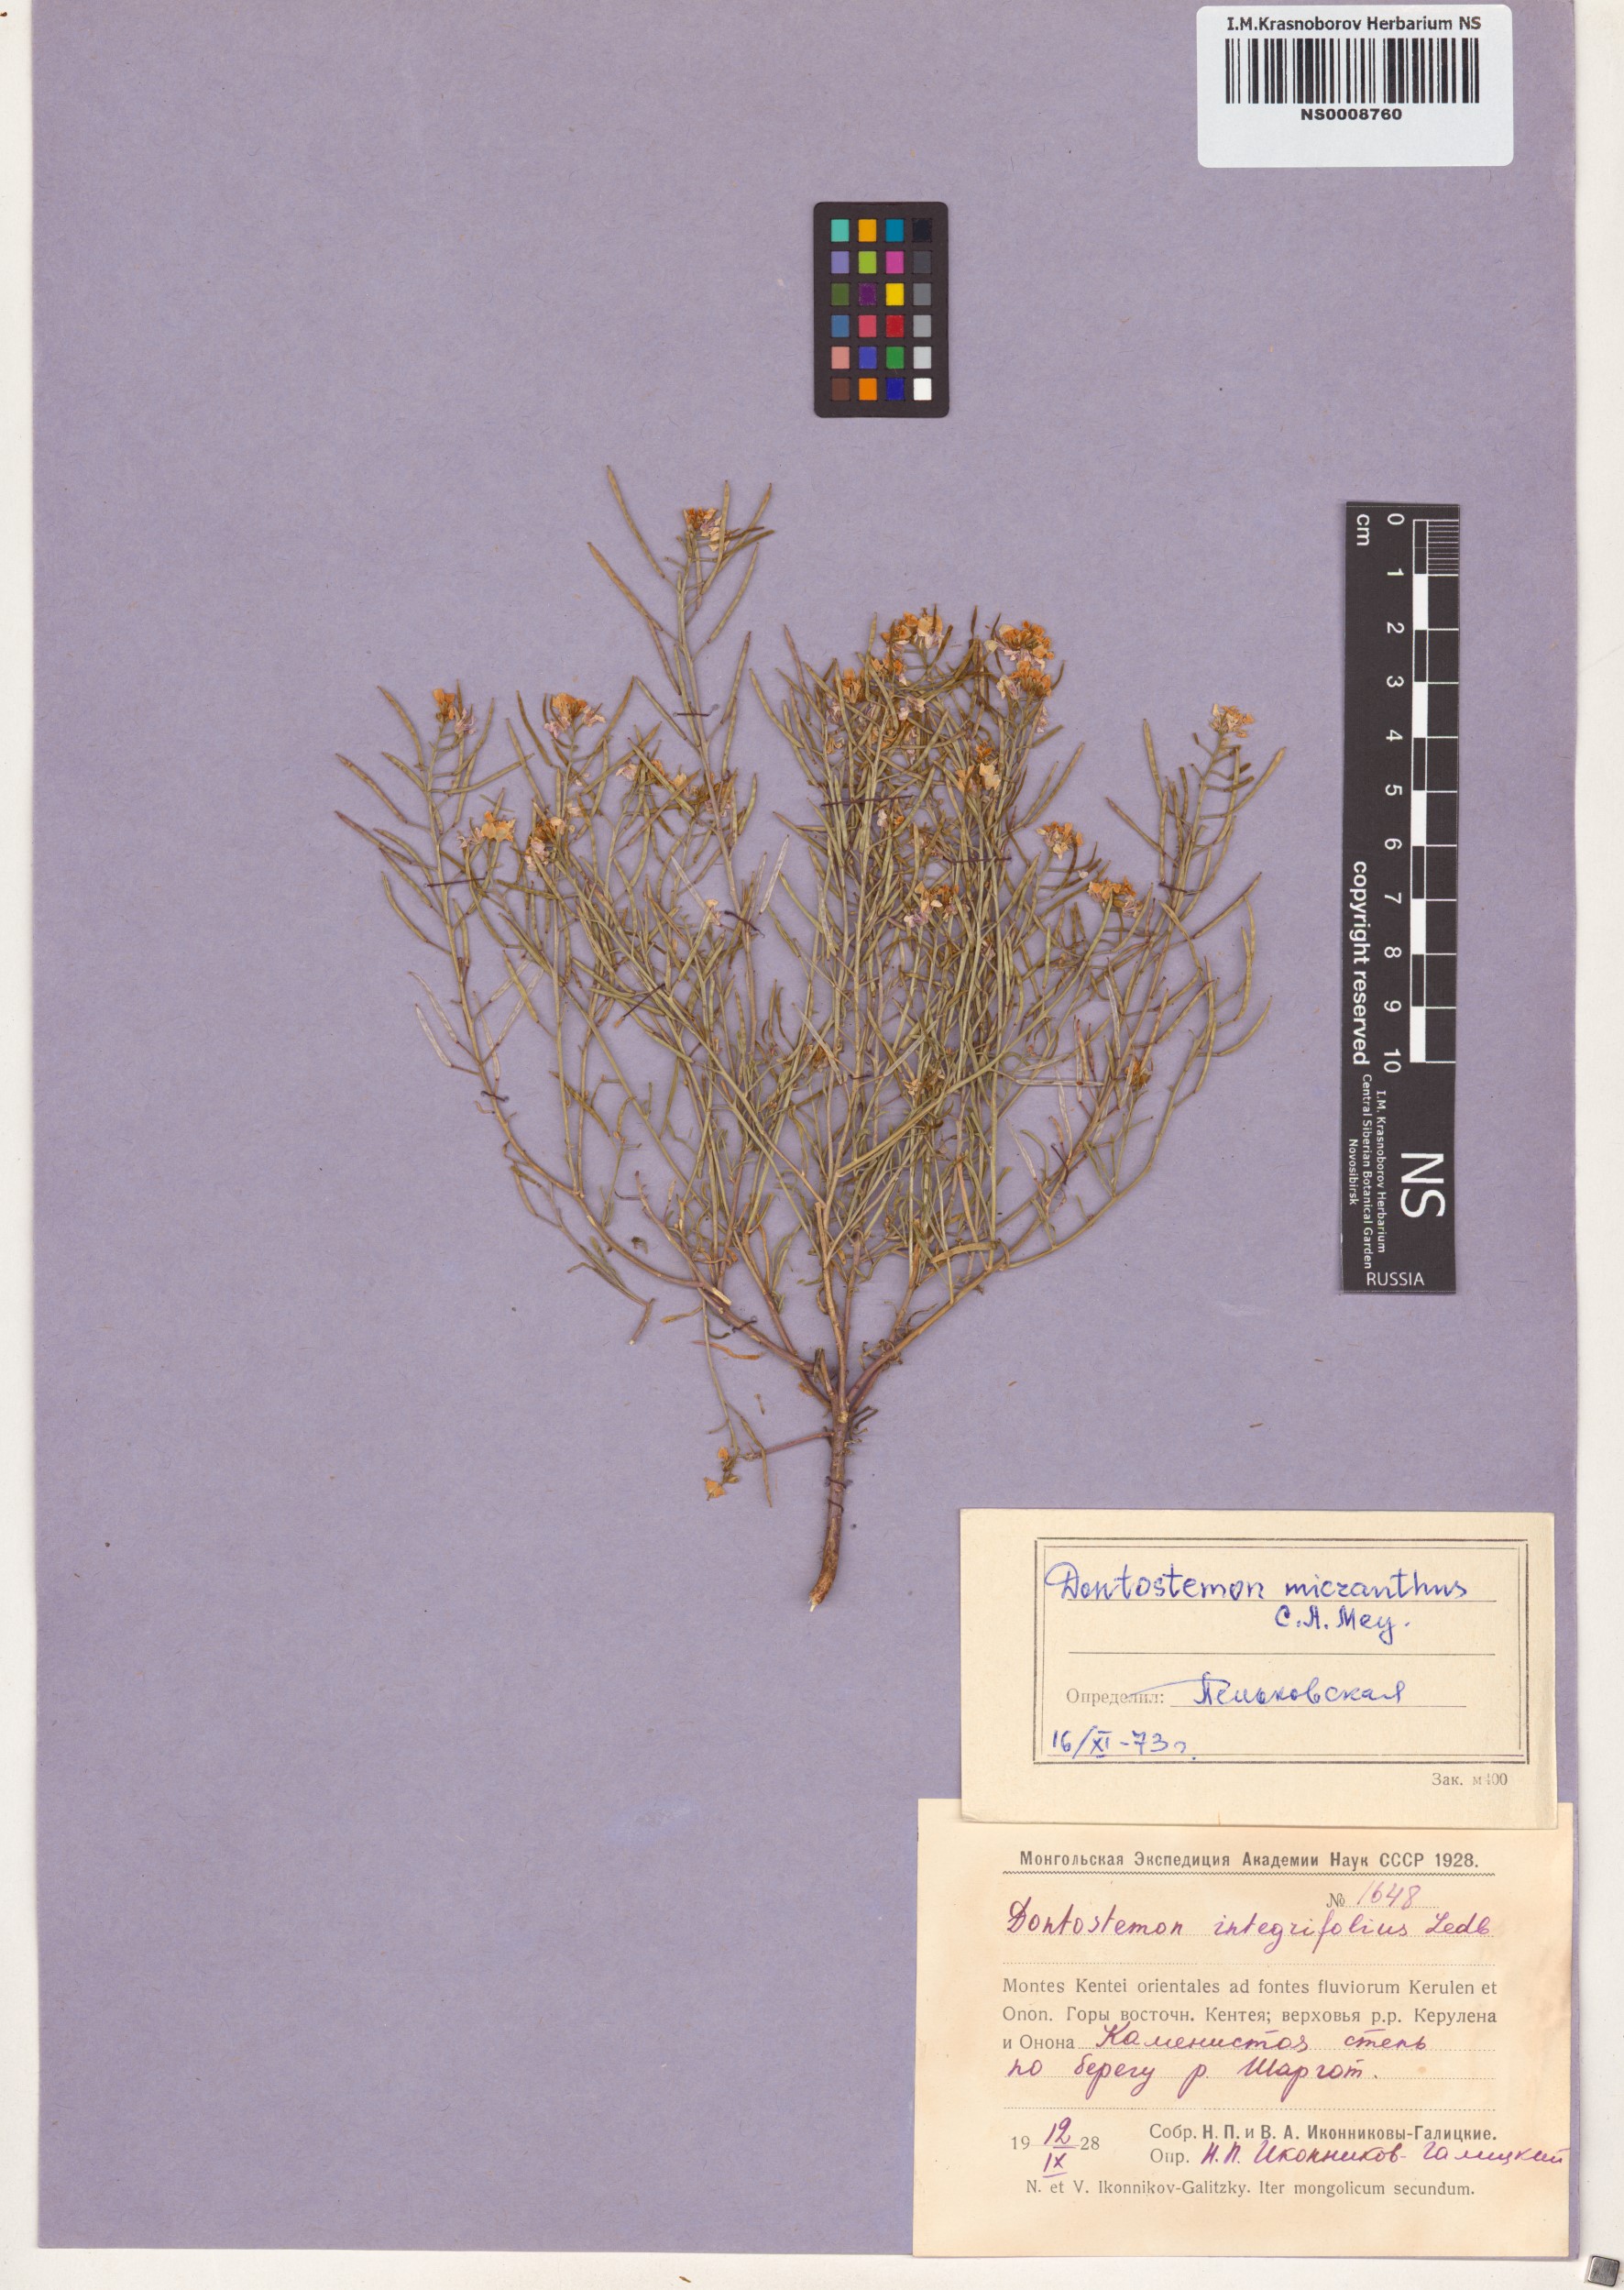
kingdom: Plantae
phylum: Tracheophyta
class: Magnoliopsida
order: Brassicales
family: Brassicaceae
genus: Dontostemon
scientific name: Dontostemon micranthus
